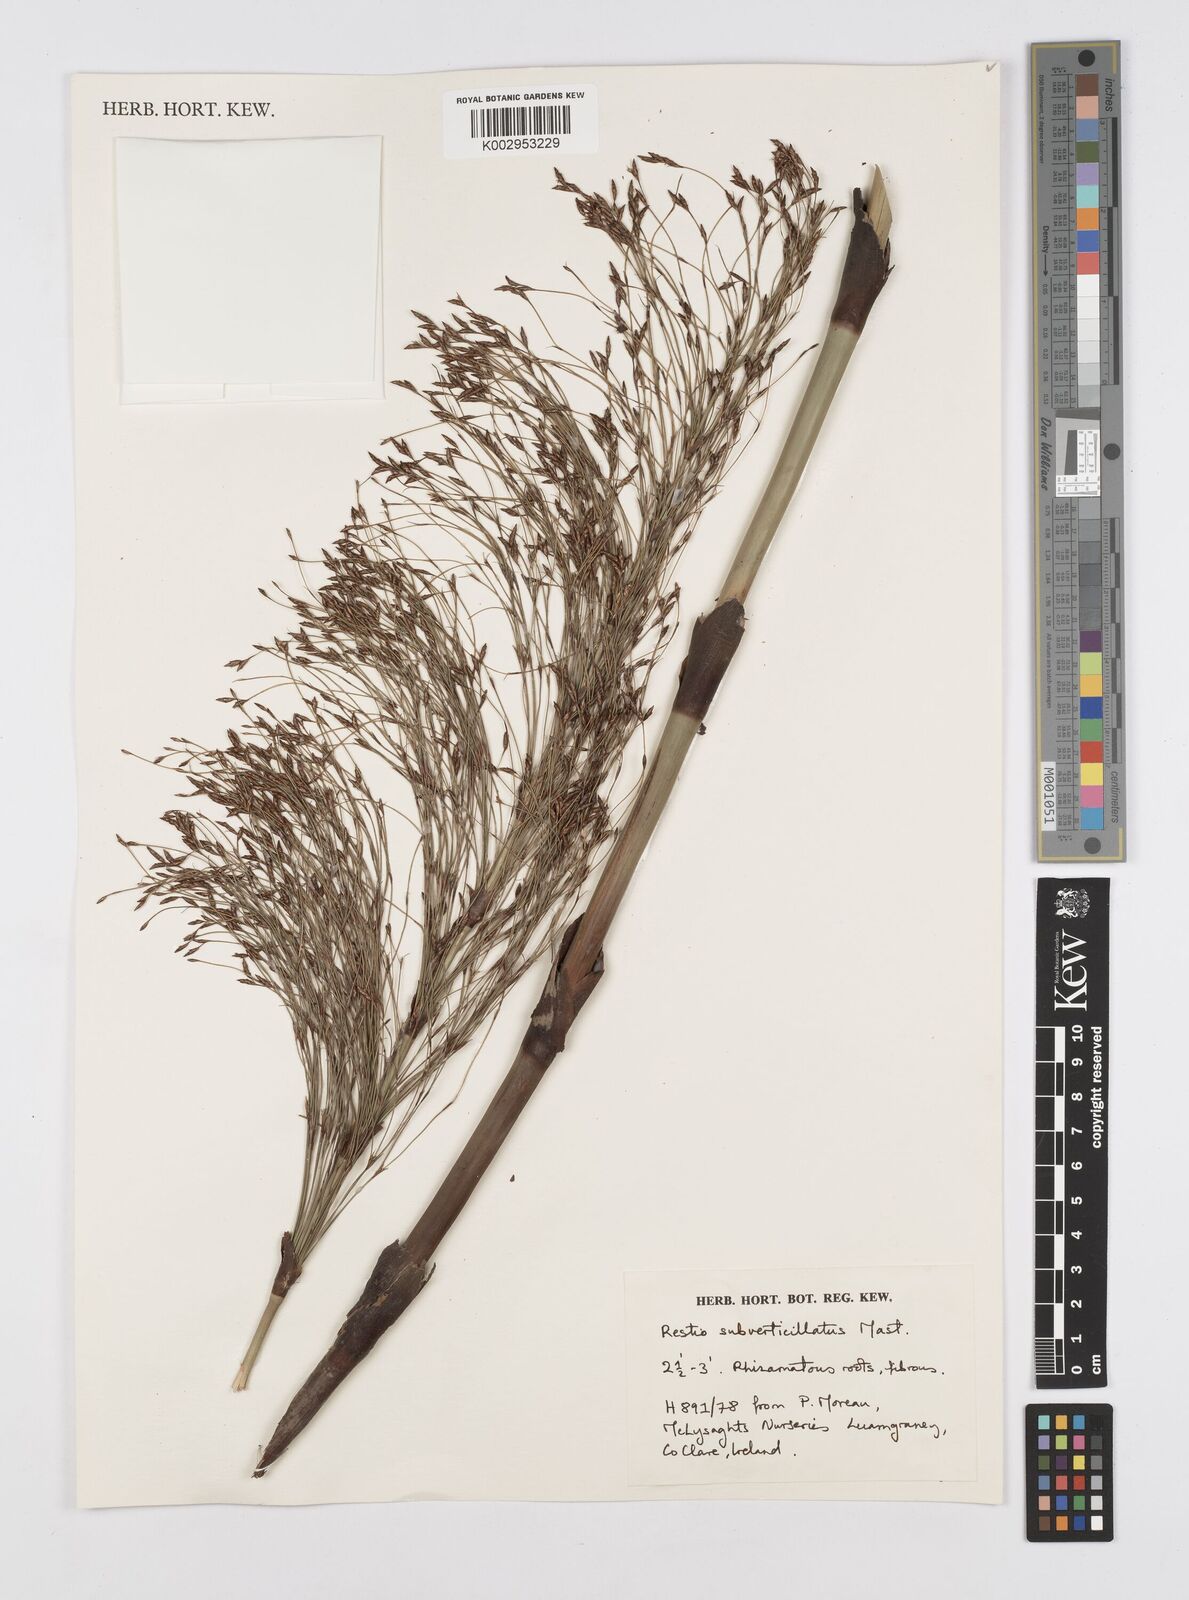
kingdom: Plantae
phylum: Tracheophyta
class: Liliopsida
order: Poales
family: Restionaceae
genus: Restio
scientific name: Restio subverticillatus
